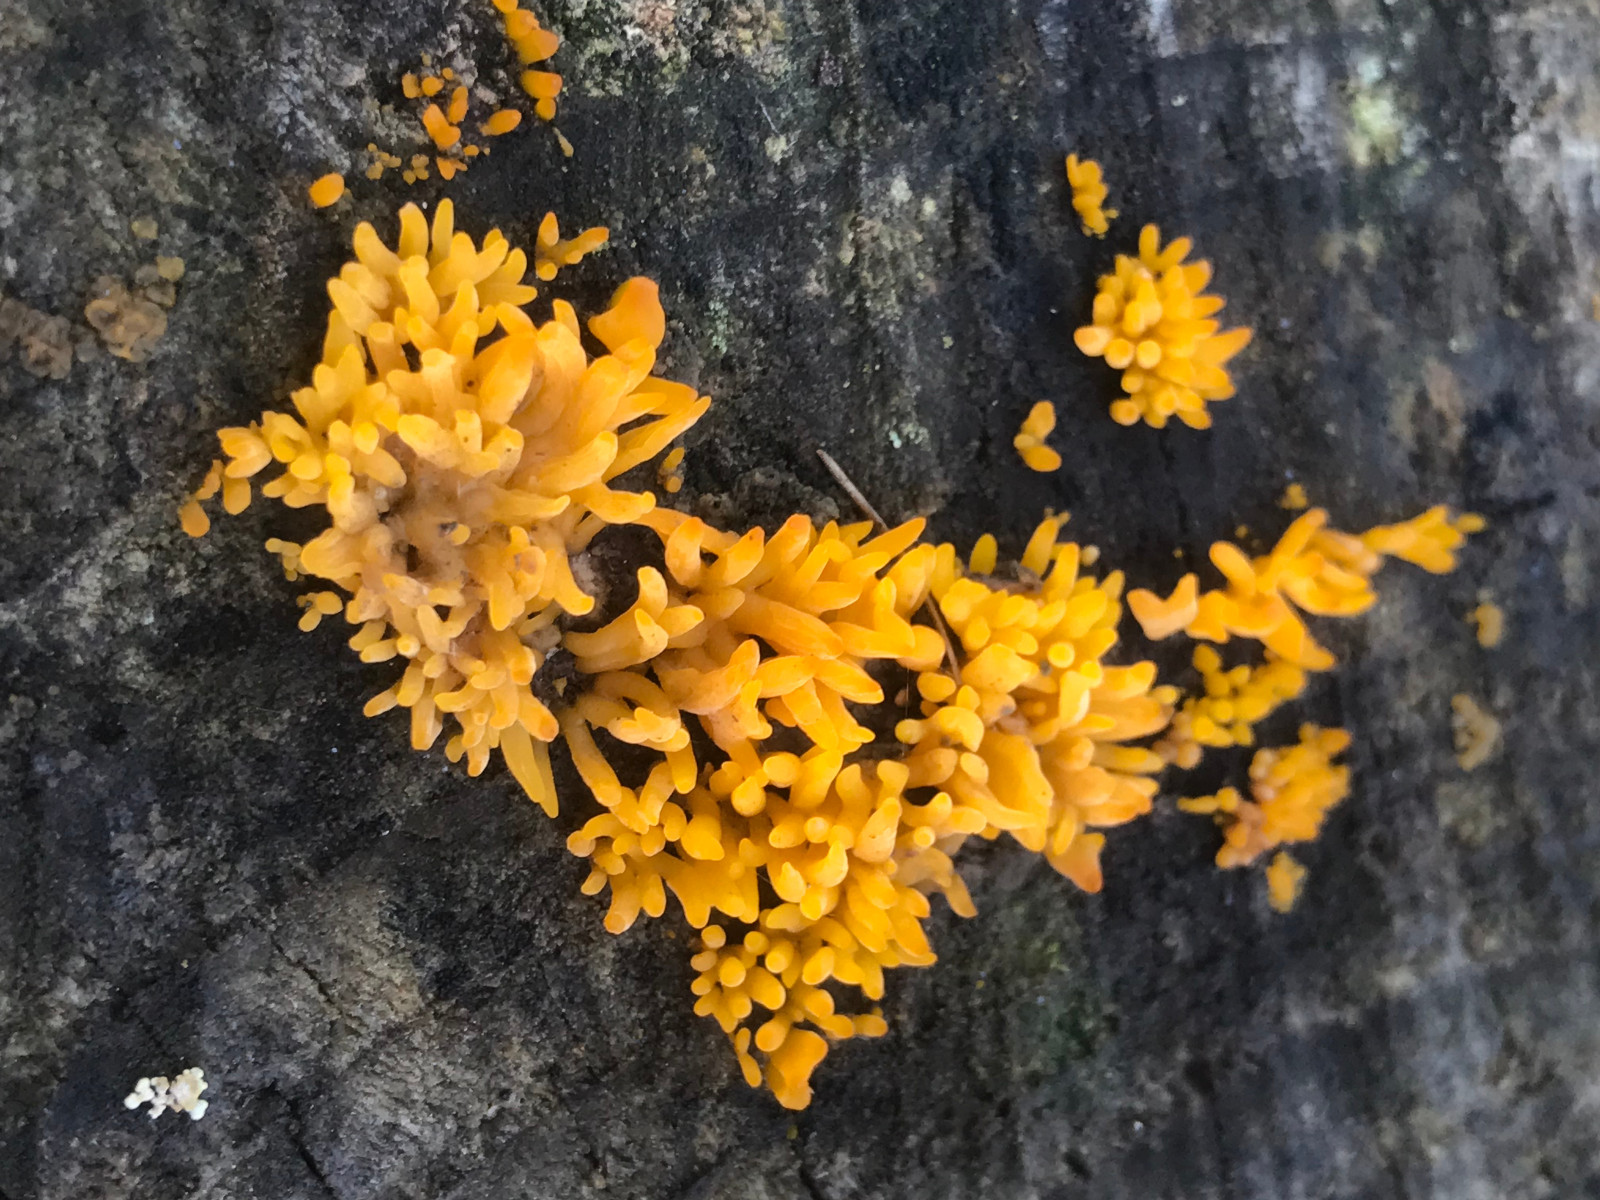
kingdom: Fungi
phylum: Basidiomycota
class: Dacrymycetes
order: Dacrymycetales
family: Dacrymycetaceae
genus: Calocera
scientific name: Calocera
